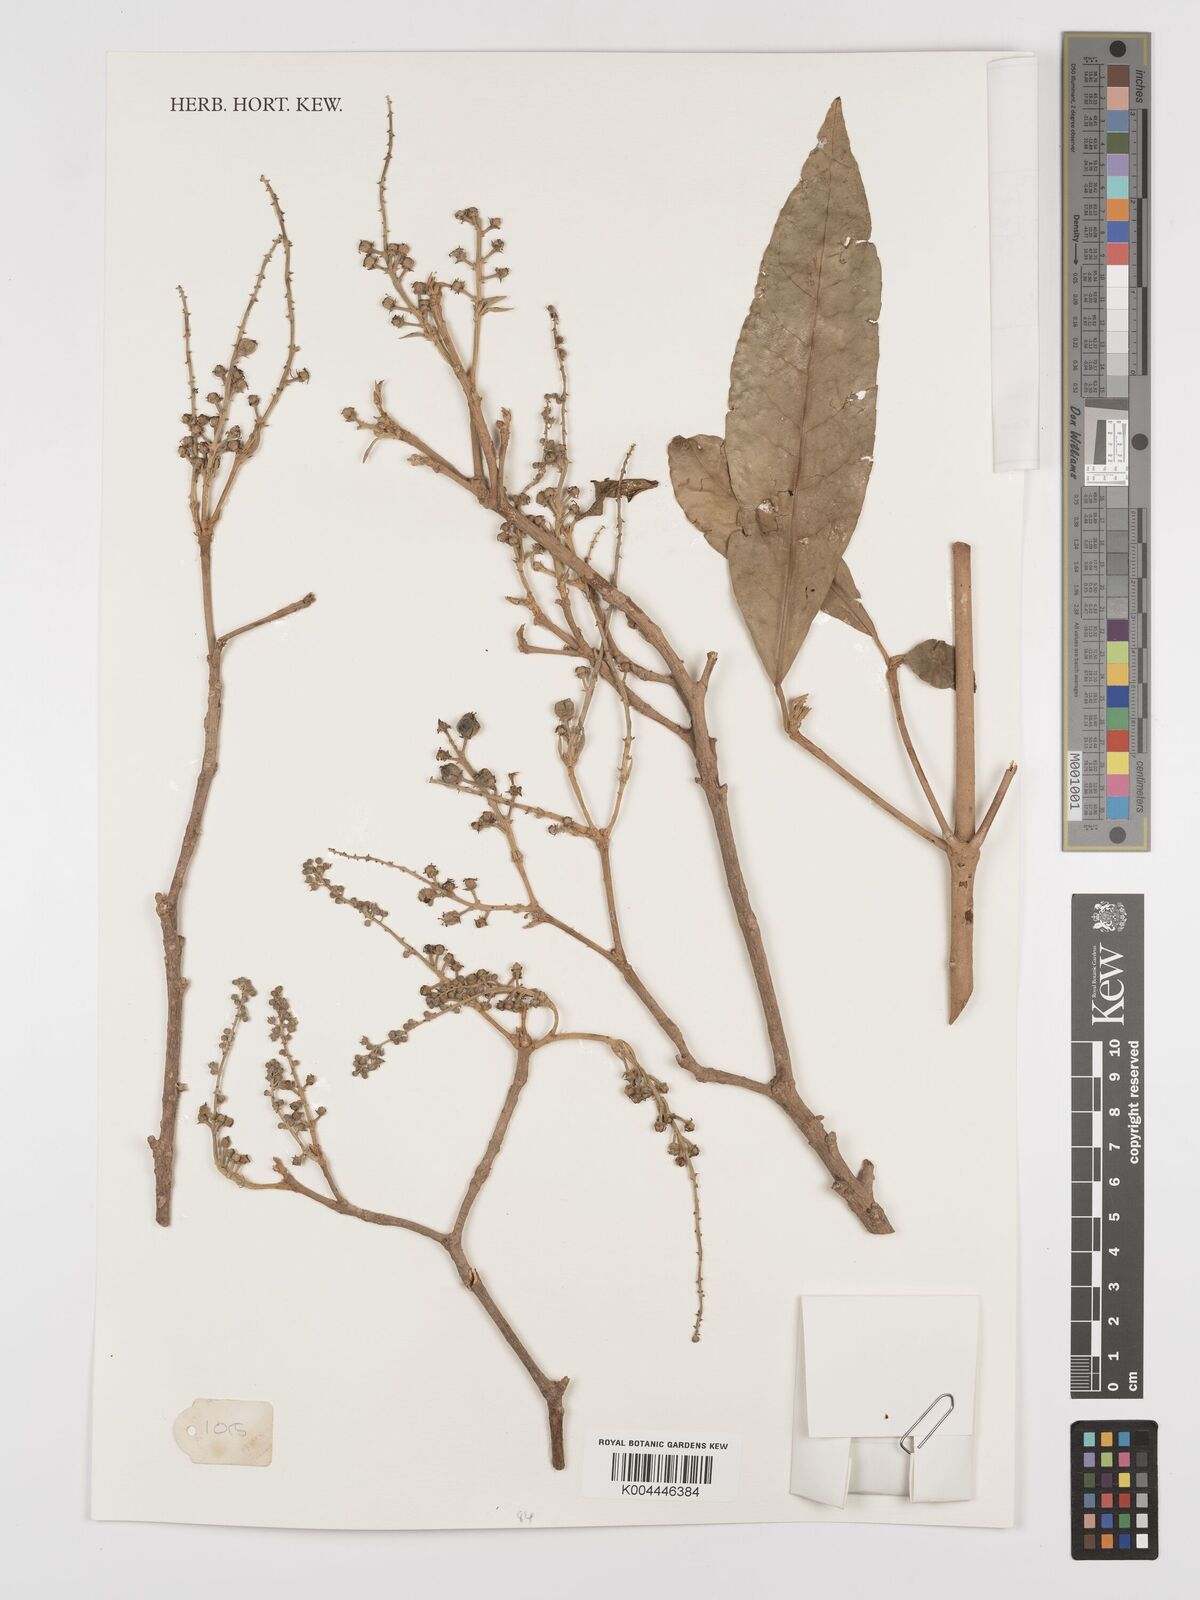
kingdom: Plantae
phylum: Tracheophyta
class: Magnoliopsida
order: Malpighiales
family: Euphorbiaceae
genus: Croton
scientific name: Croton
